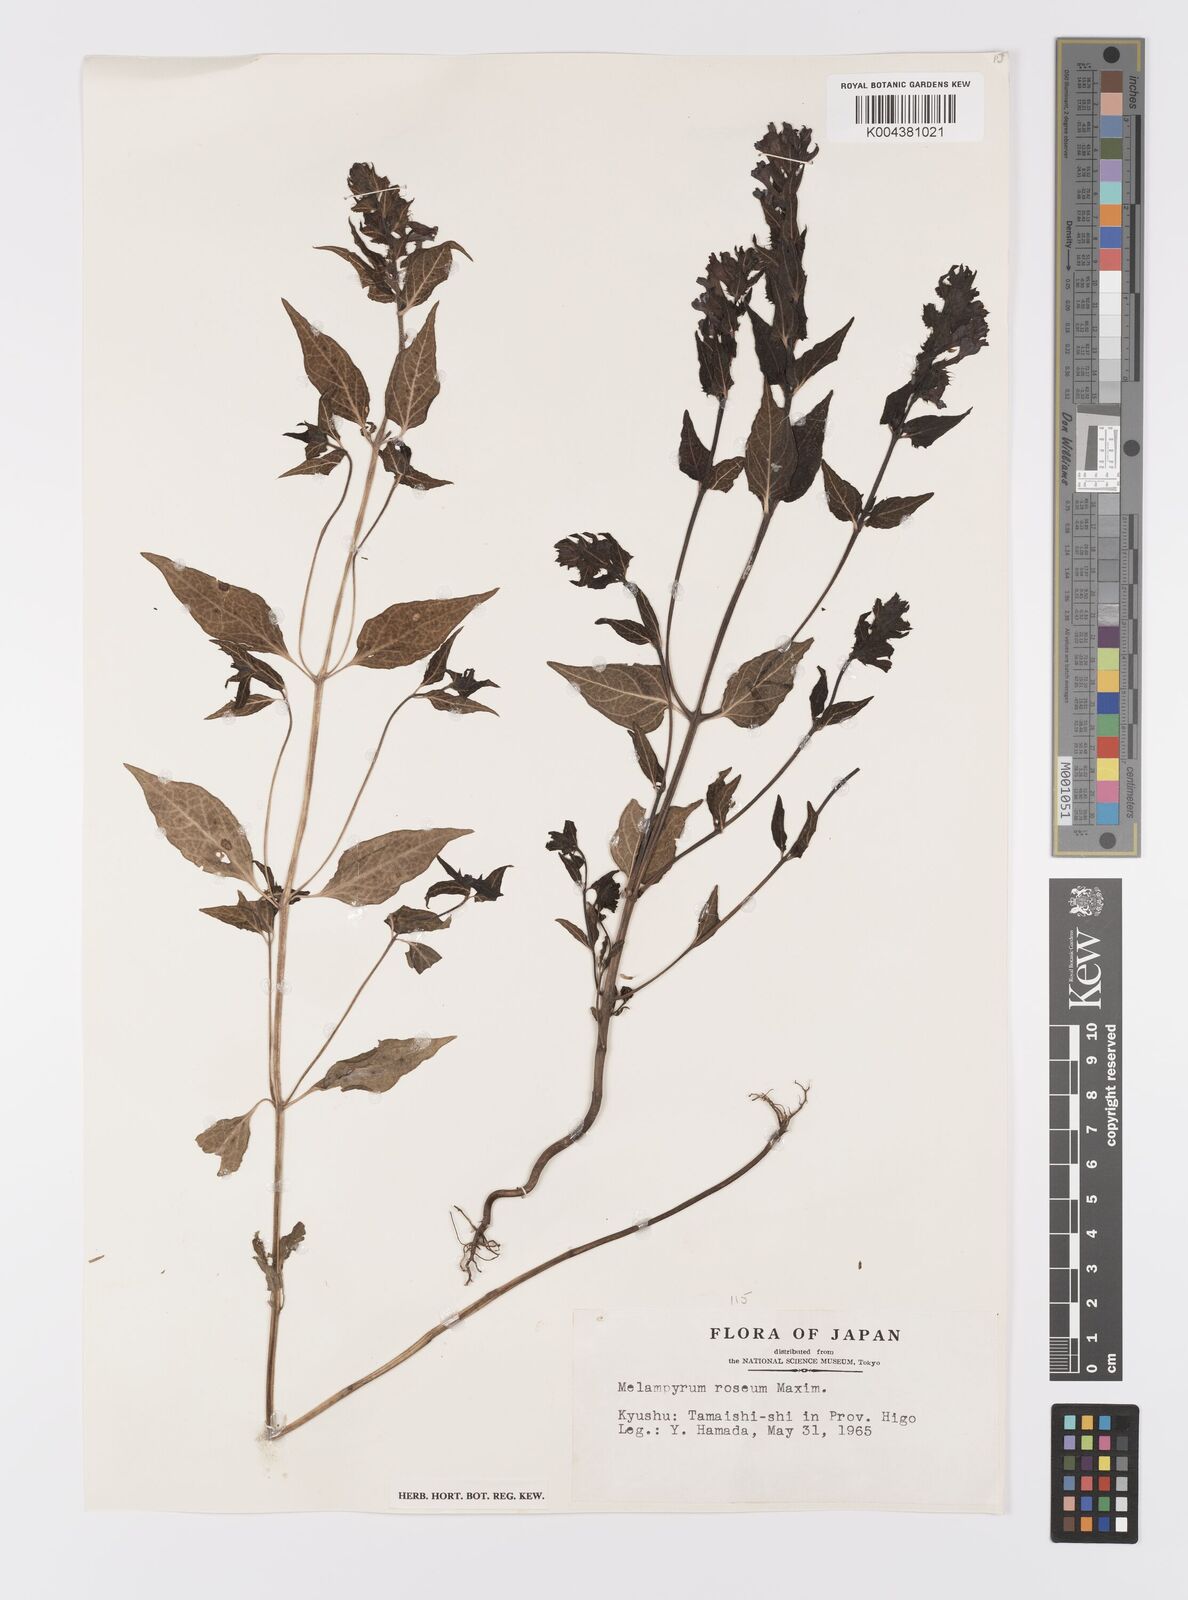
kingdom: Plantae
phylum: Tracheophyta
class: Magnoliopsida
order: Lamiales
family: Orobanchaceae
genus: Melampyrum
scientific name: Melampyrum roseum
